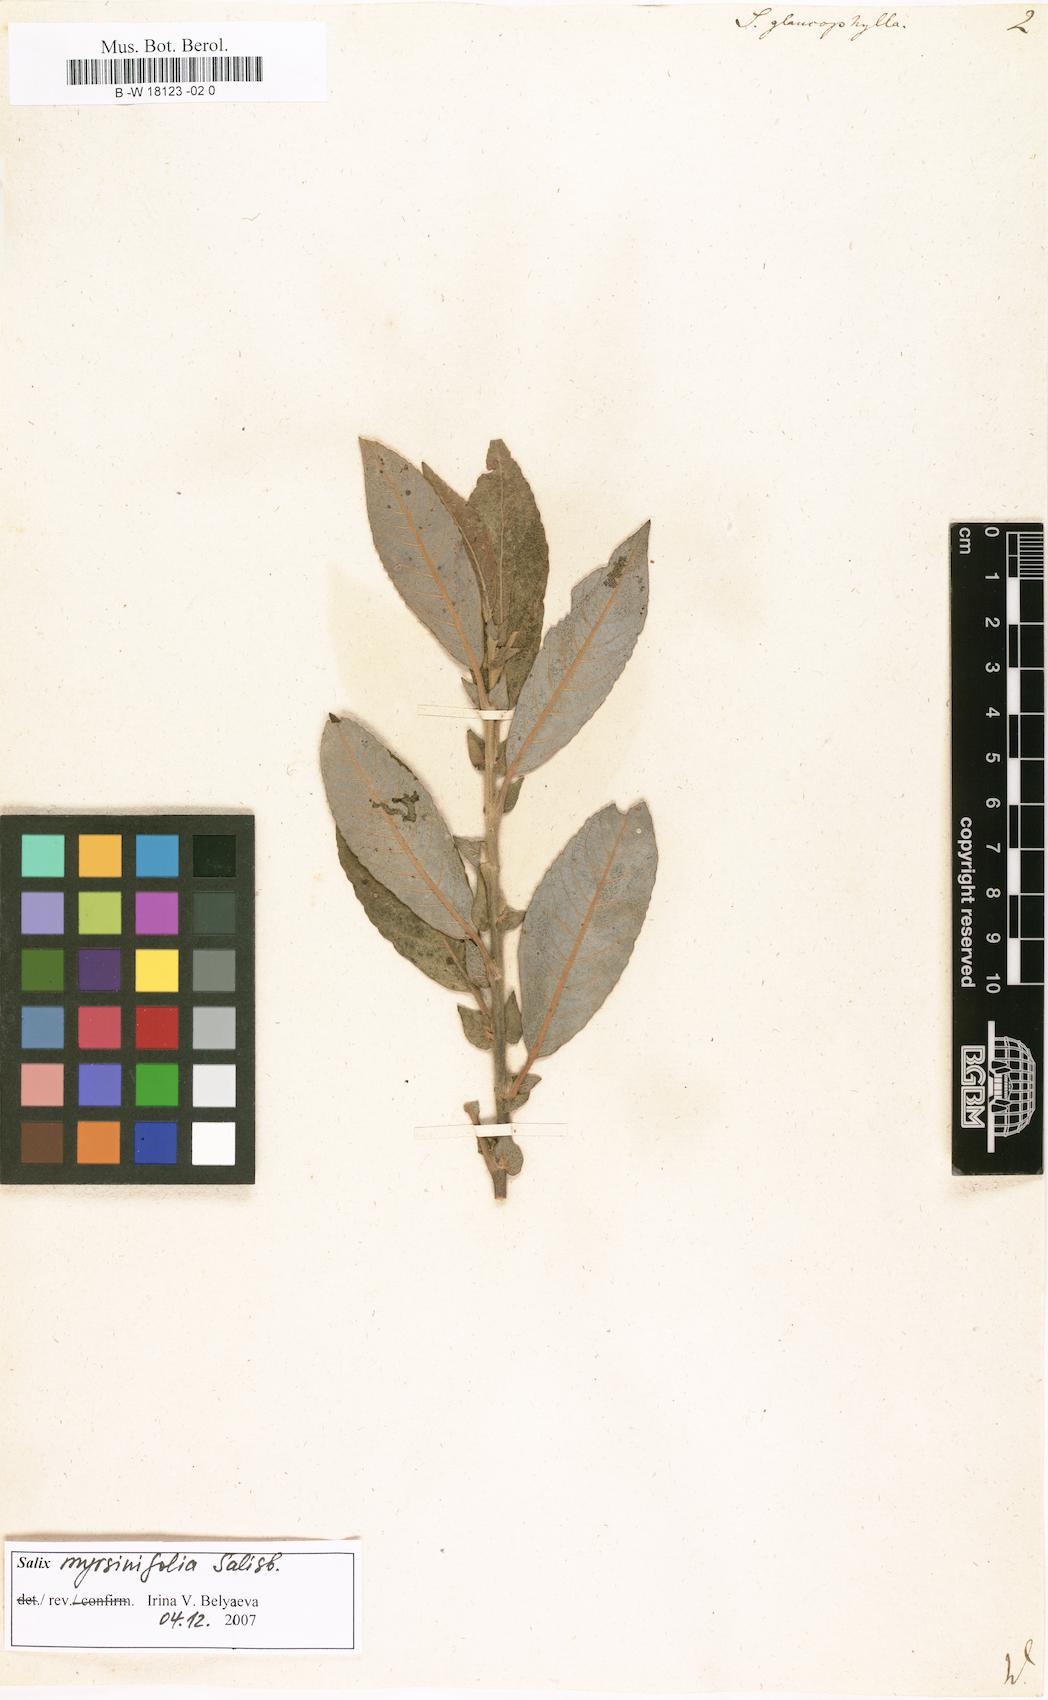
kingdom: Plantae
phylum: Tracheophyta
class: Magnoliopsida
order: Malpighiales
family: Salicaceae
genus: Salix
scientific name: Salix myricoides
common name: Bayberry willow
